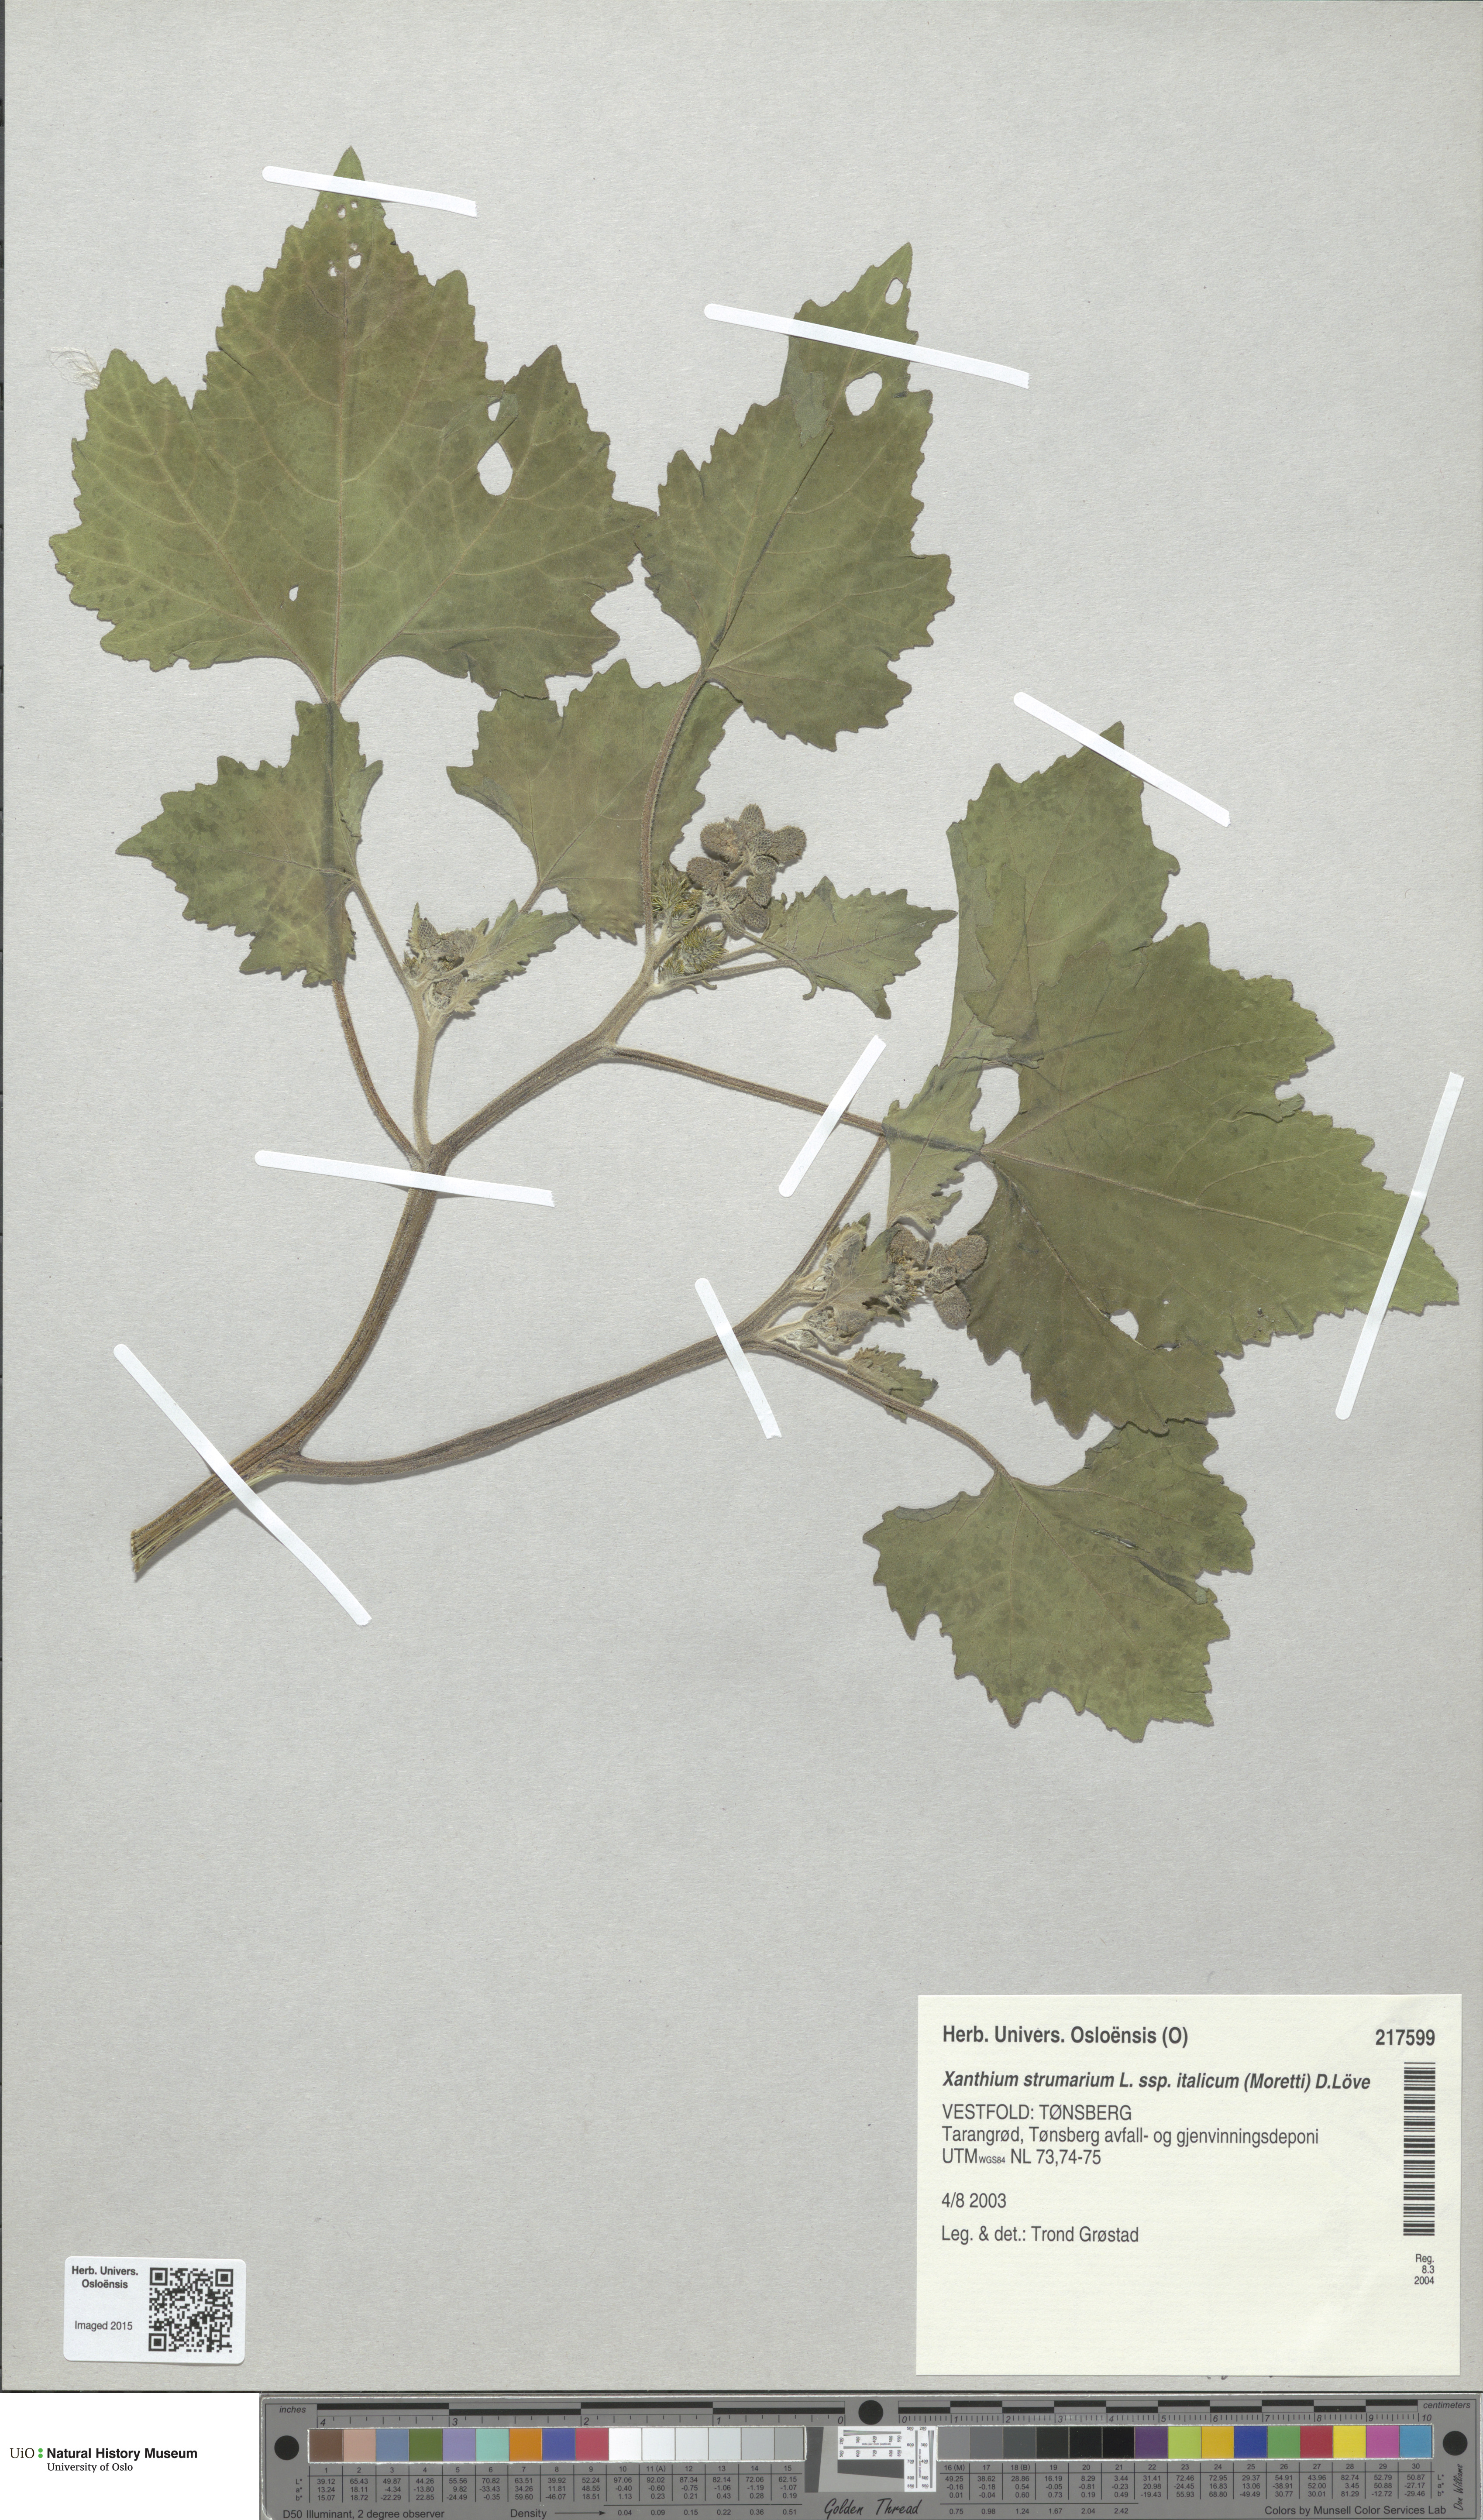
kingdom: Plantae
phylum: Tracheophyta
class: Magnoliopsida
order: Asterales
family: Asteraceae
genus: Xanthium
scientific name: Xanthium strumarium
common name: Rough cocklebur
